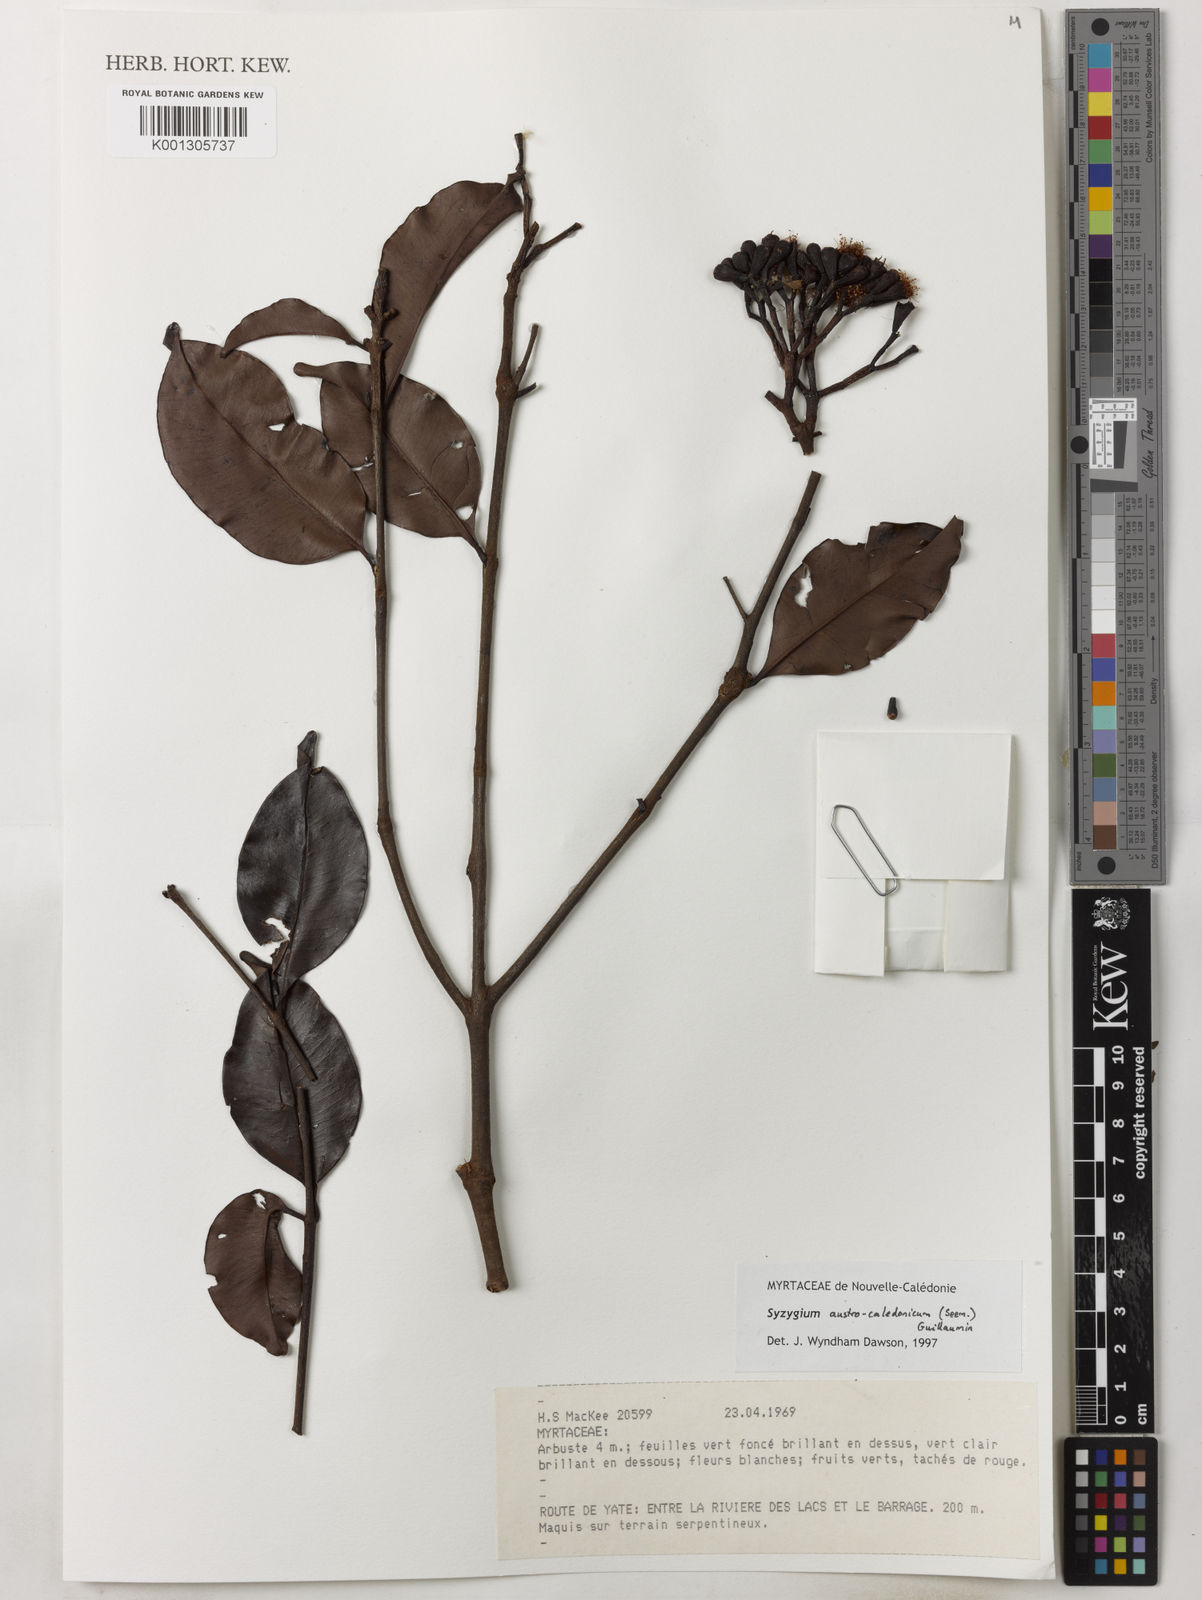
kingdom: Plantae
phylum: Tracheophyta
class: Magnoliopsida
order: Myrtales
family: Myrtaceae
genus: Syzygium
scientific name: Syzygium austrocaledonicum
